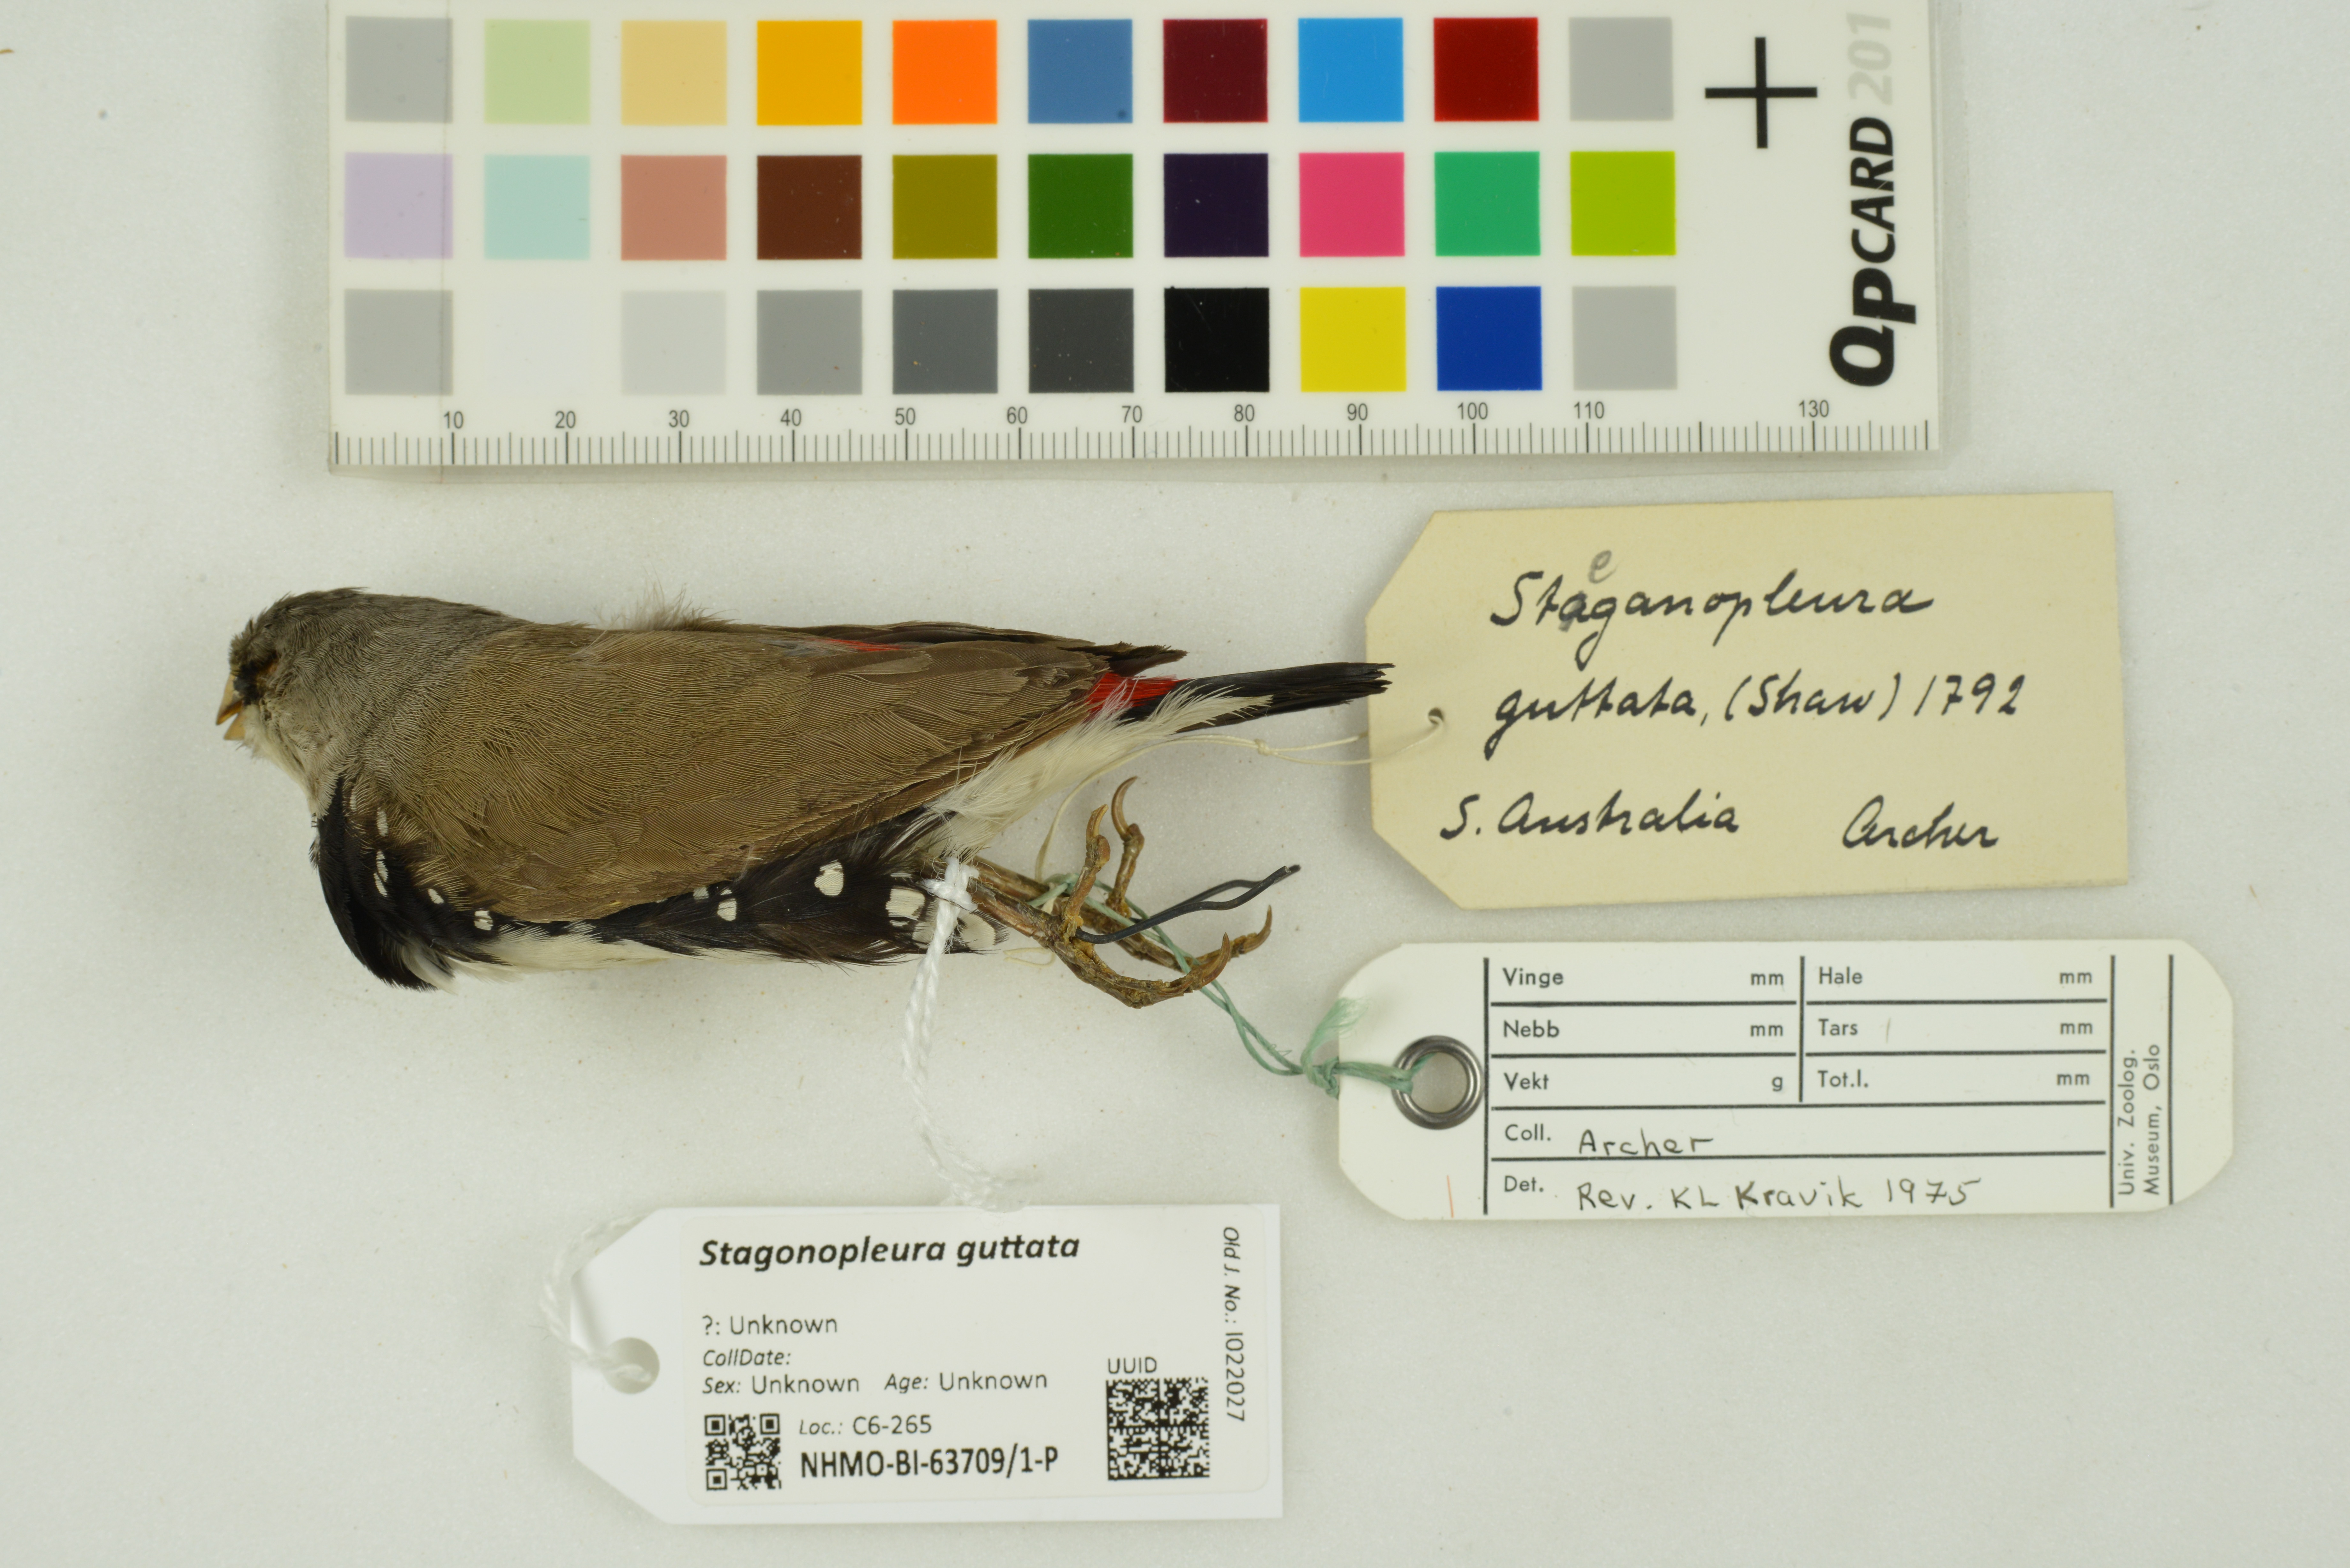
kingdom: Animalia
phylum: Chordata
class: Aves
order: Passeriformes
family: Estrildidae
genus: Stagonopleura
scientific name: Stagonopleura guttata
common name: Diamond firetail
